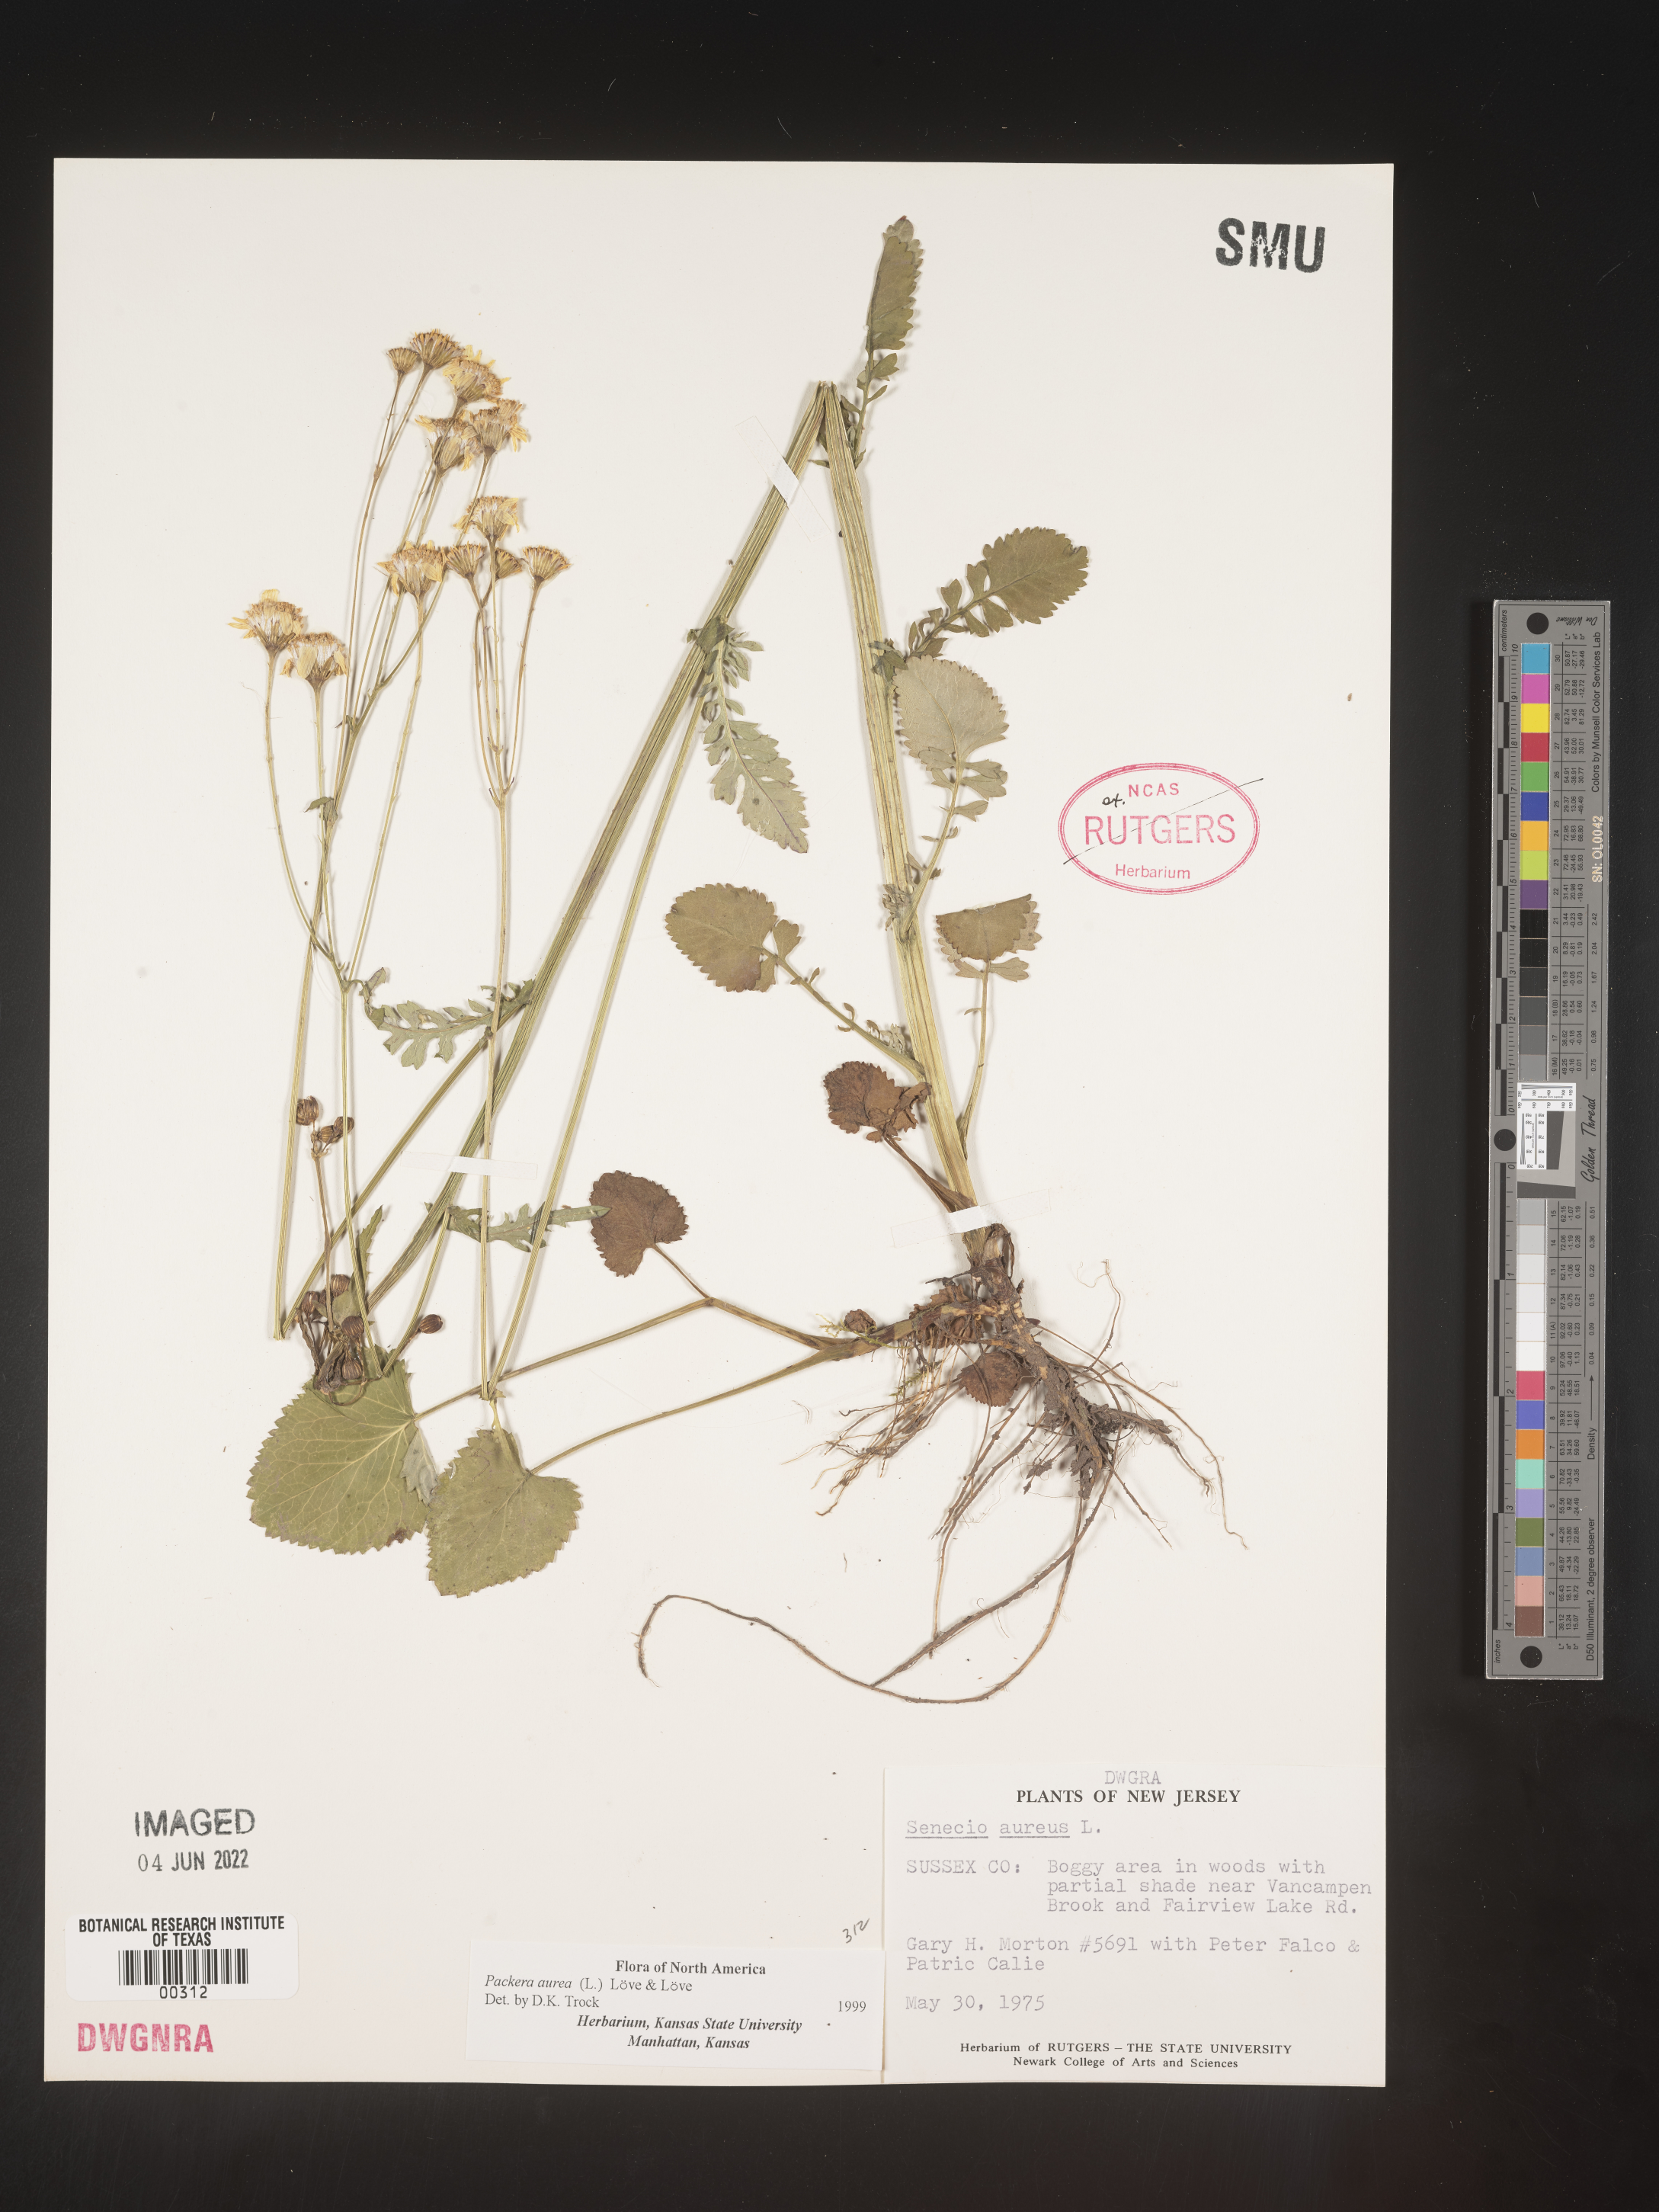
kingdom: Plantae
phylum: Tracheophyta
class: Magnoliopsida
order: Asterales
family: Asteraceae
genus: Packera
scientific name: Packera aurea
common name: Golden groundsel
